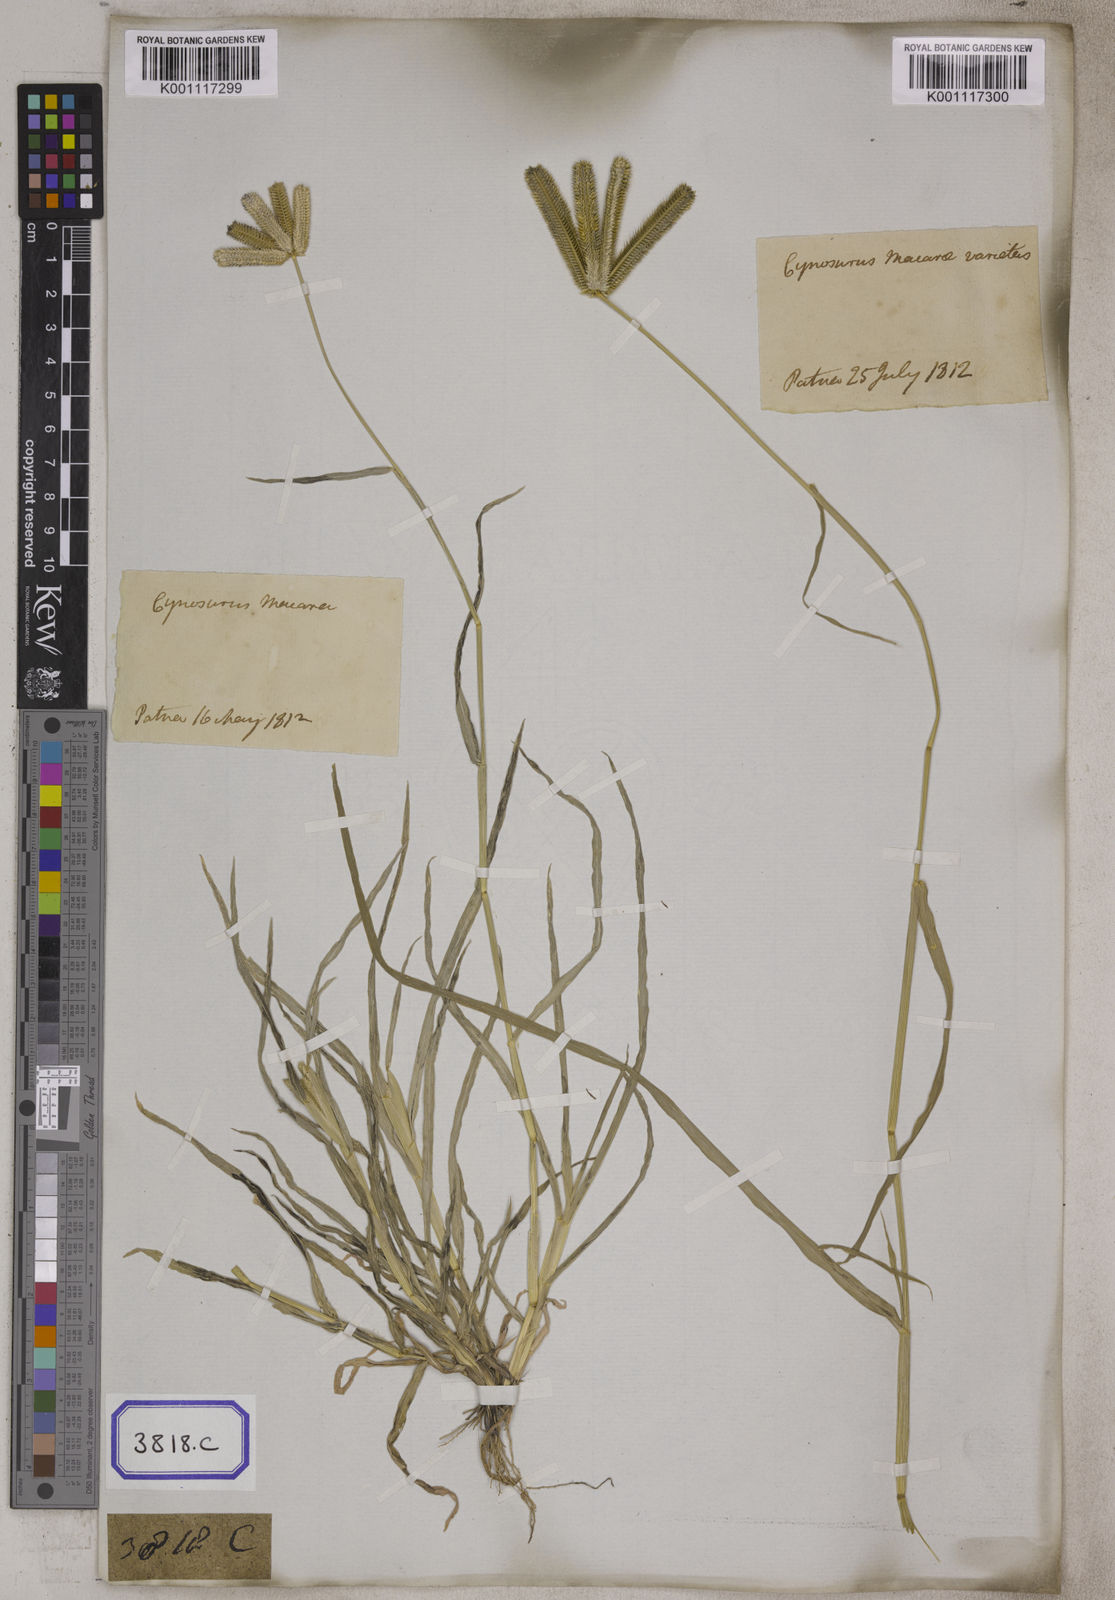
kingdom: Plantae
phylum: Tracheophyta
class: Liliopsida
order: Poales
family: Poaceae
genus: Eleusine
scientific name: Eleusine
